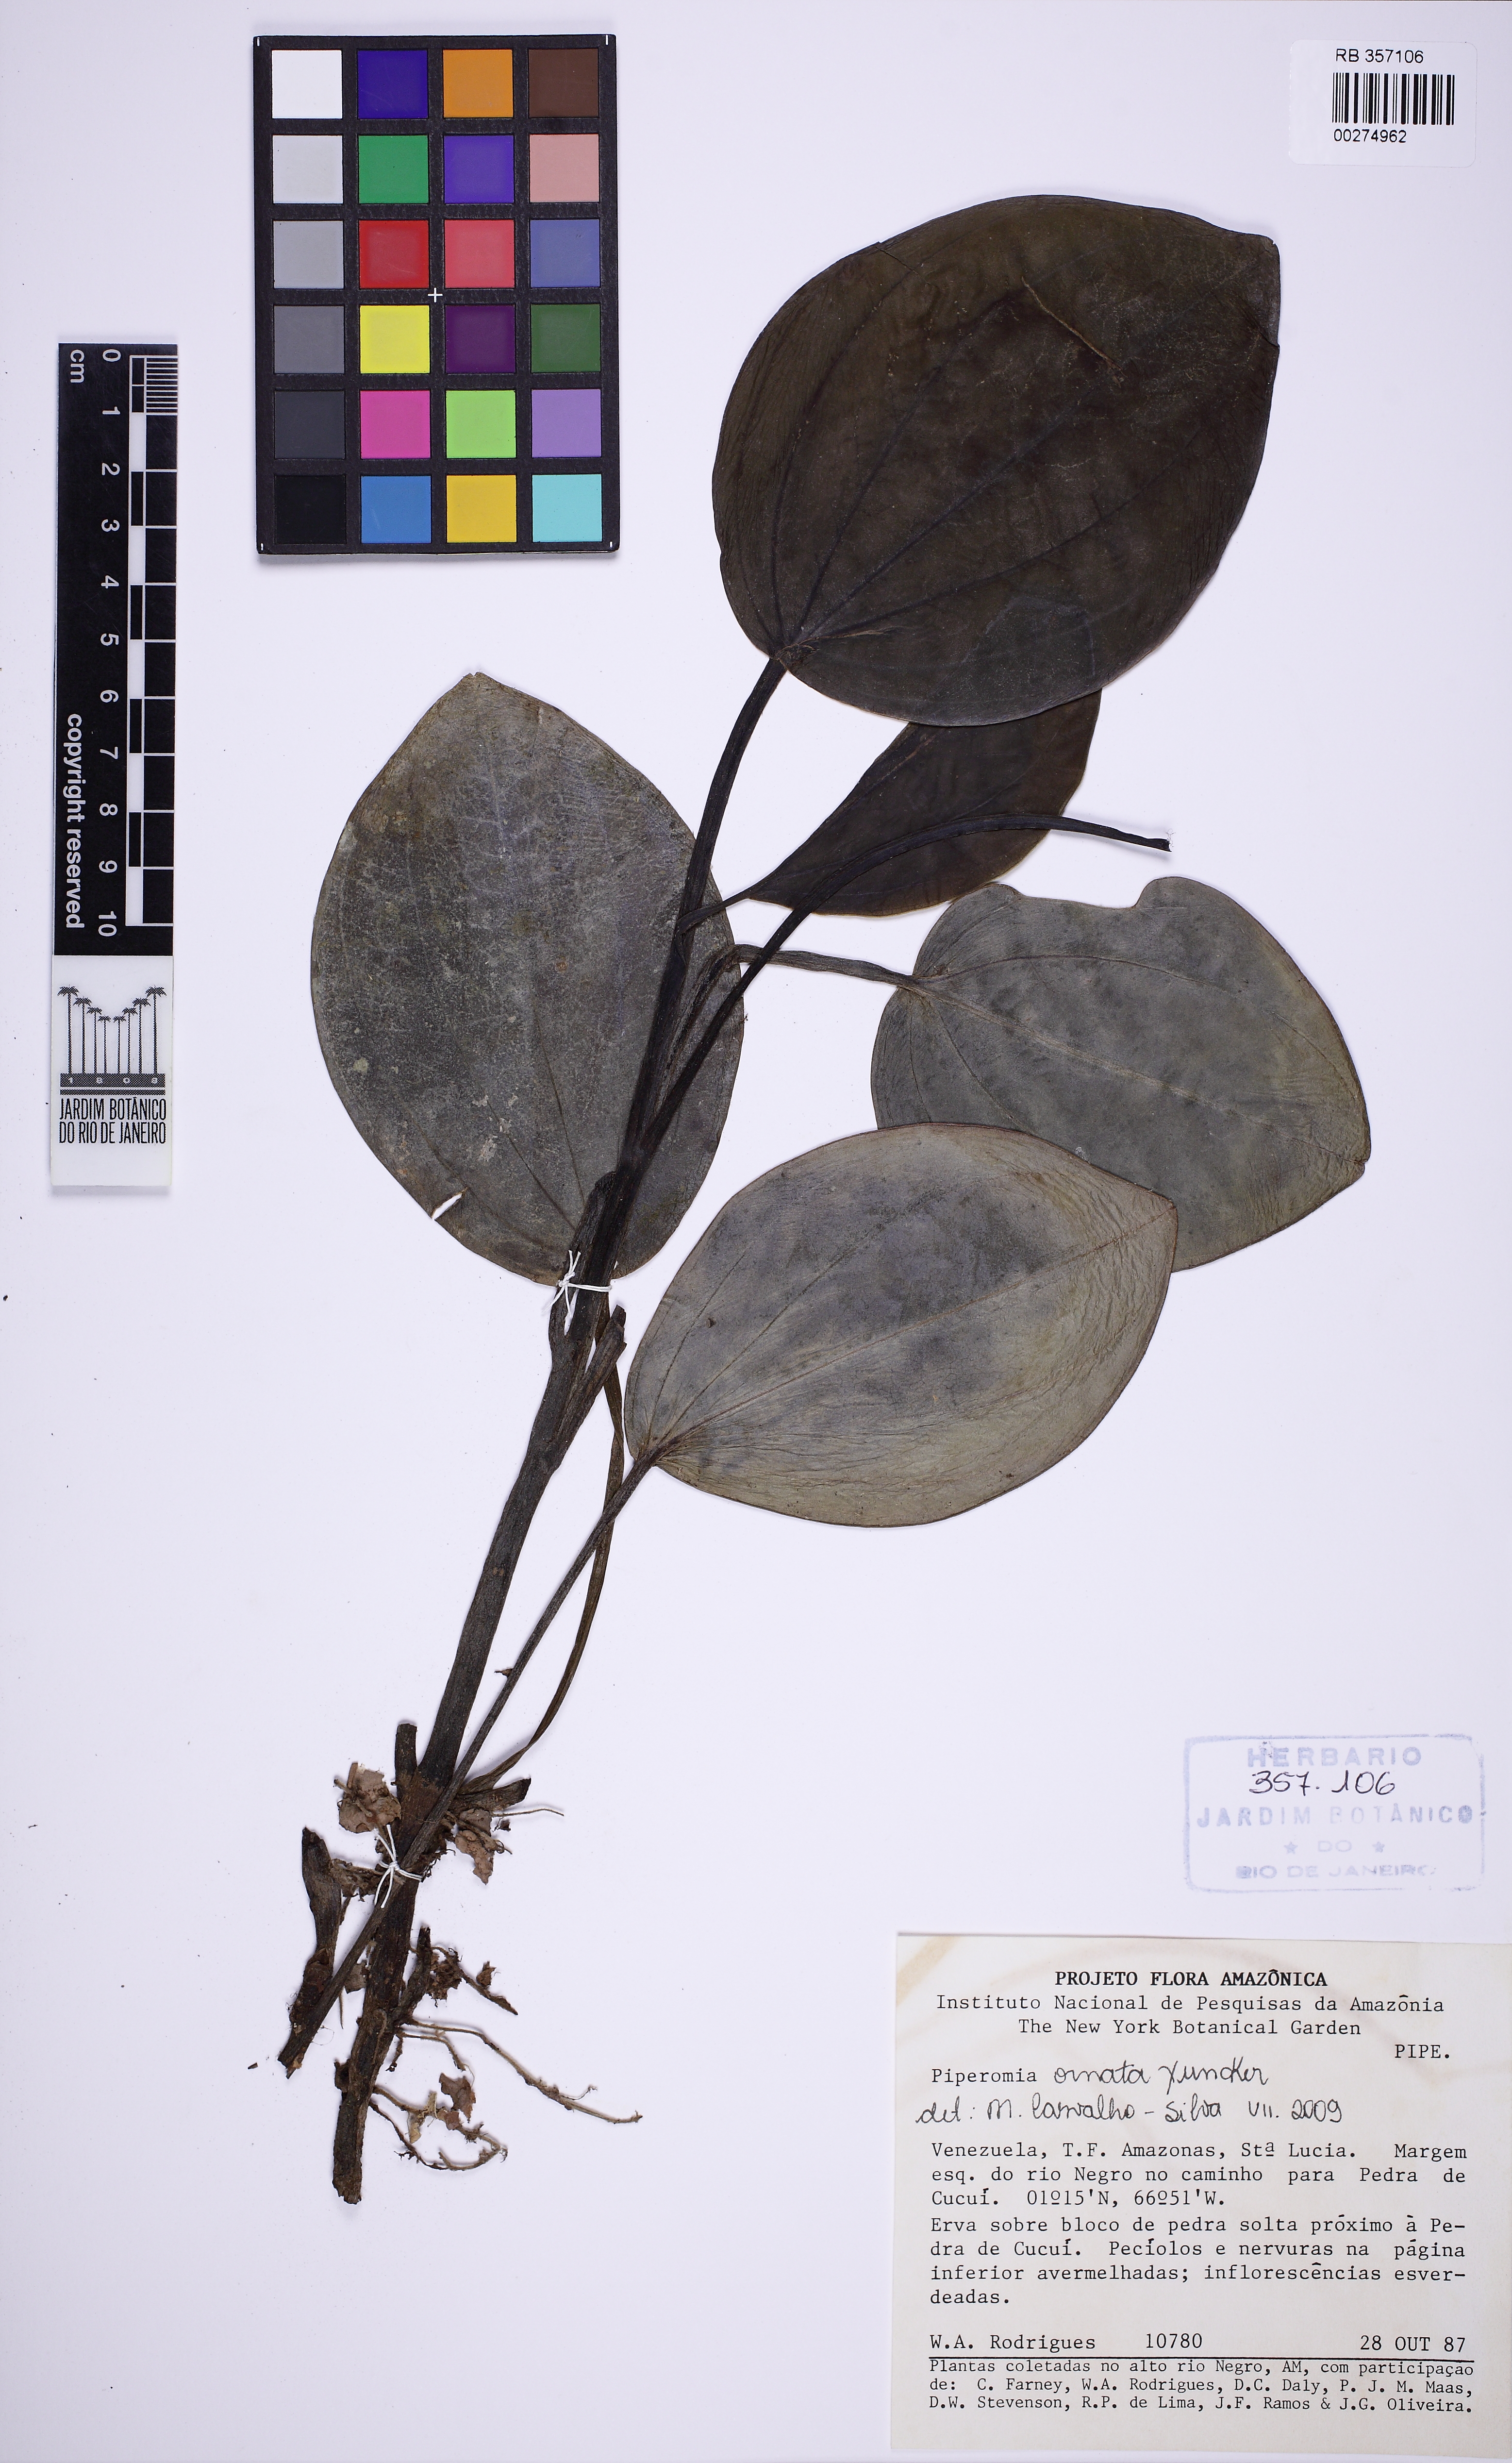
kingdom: Plantae
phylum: Tracheophyta
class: Magnoliopsida
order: Piperales
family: Piperaceae
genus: Peperomia
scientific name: Peperomia maypurensis
